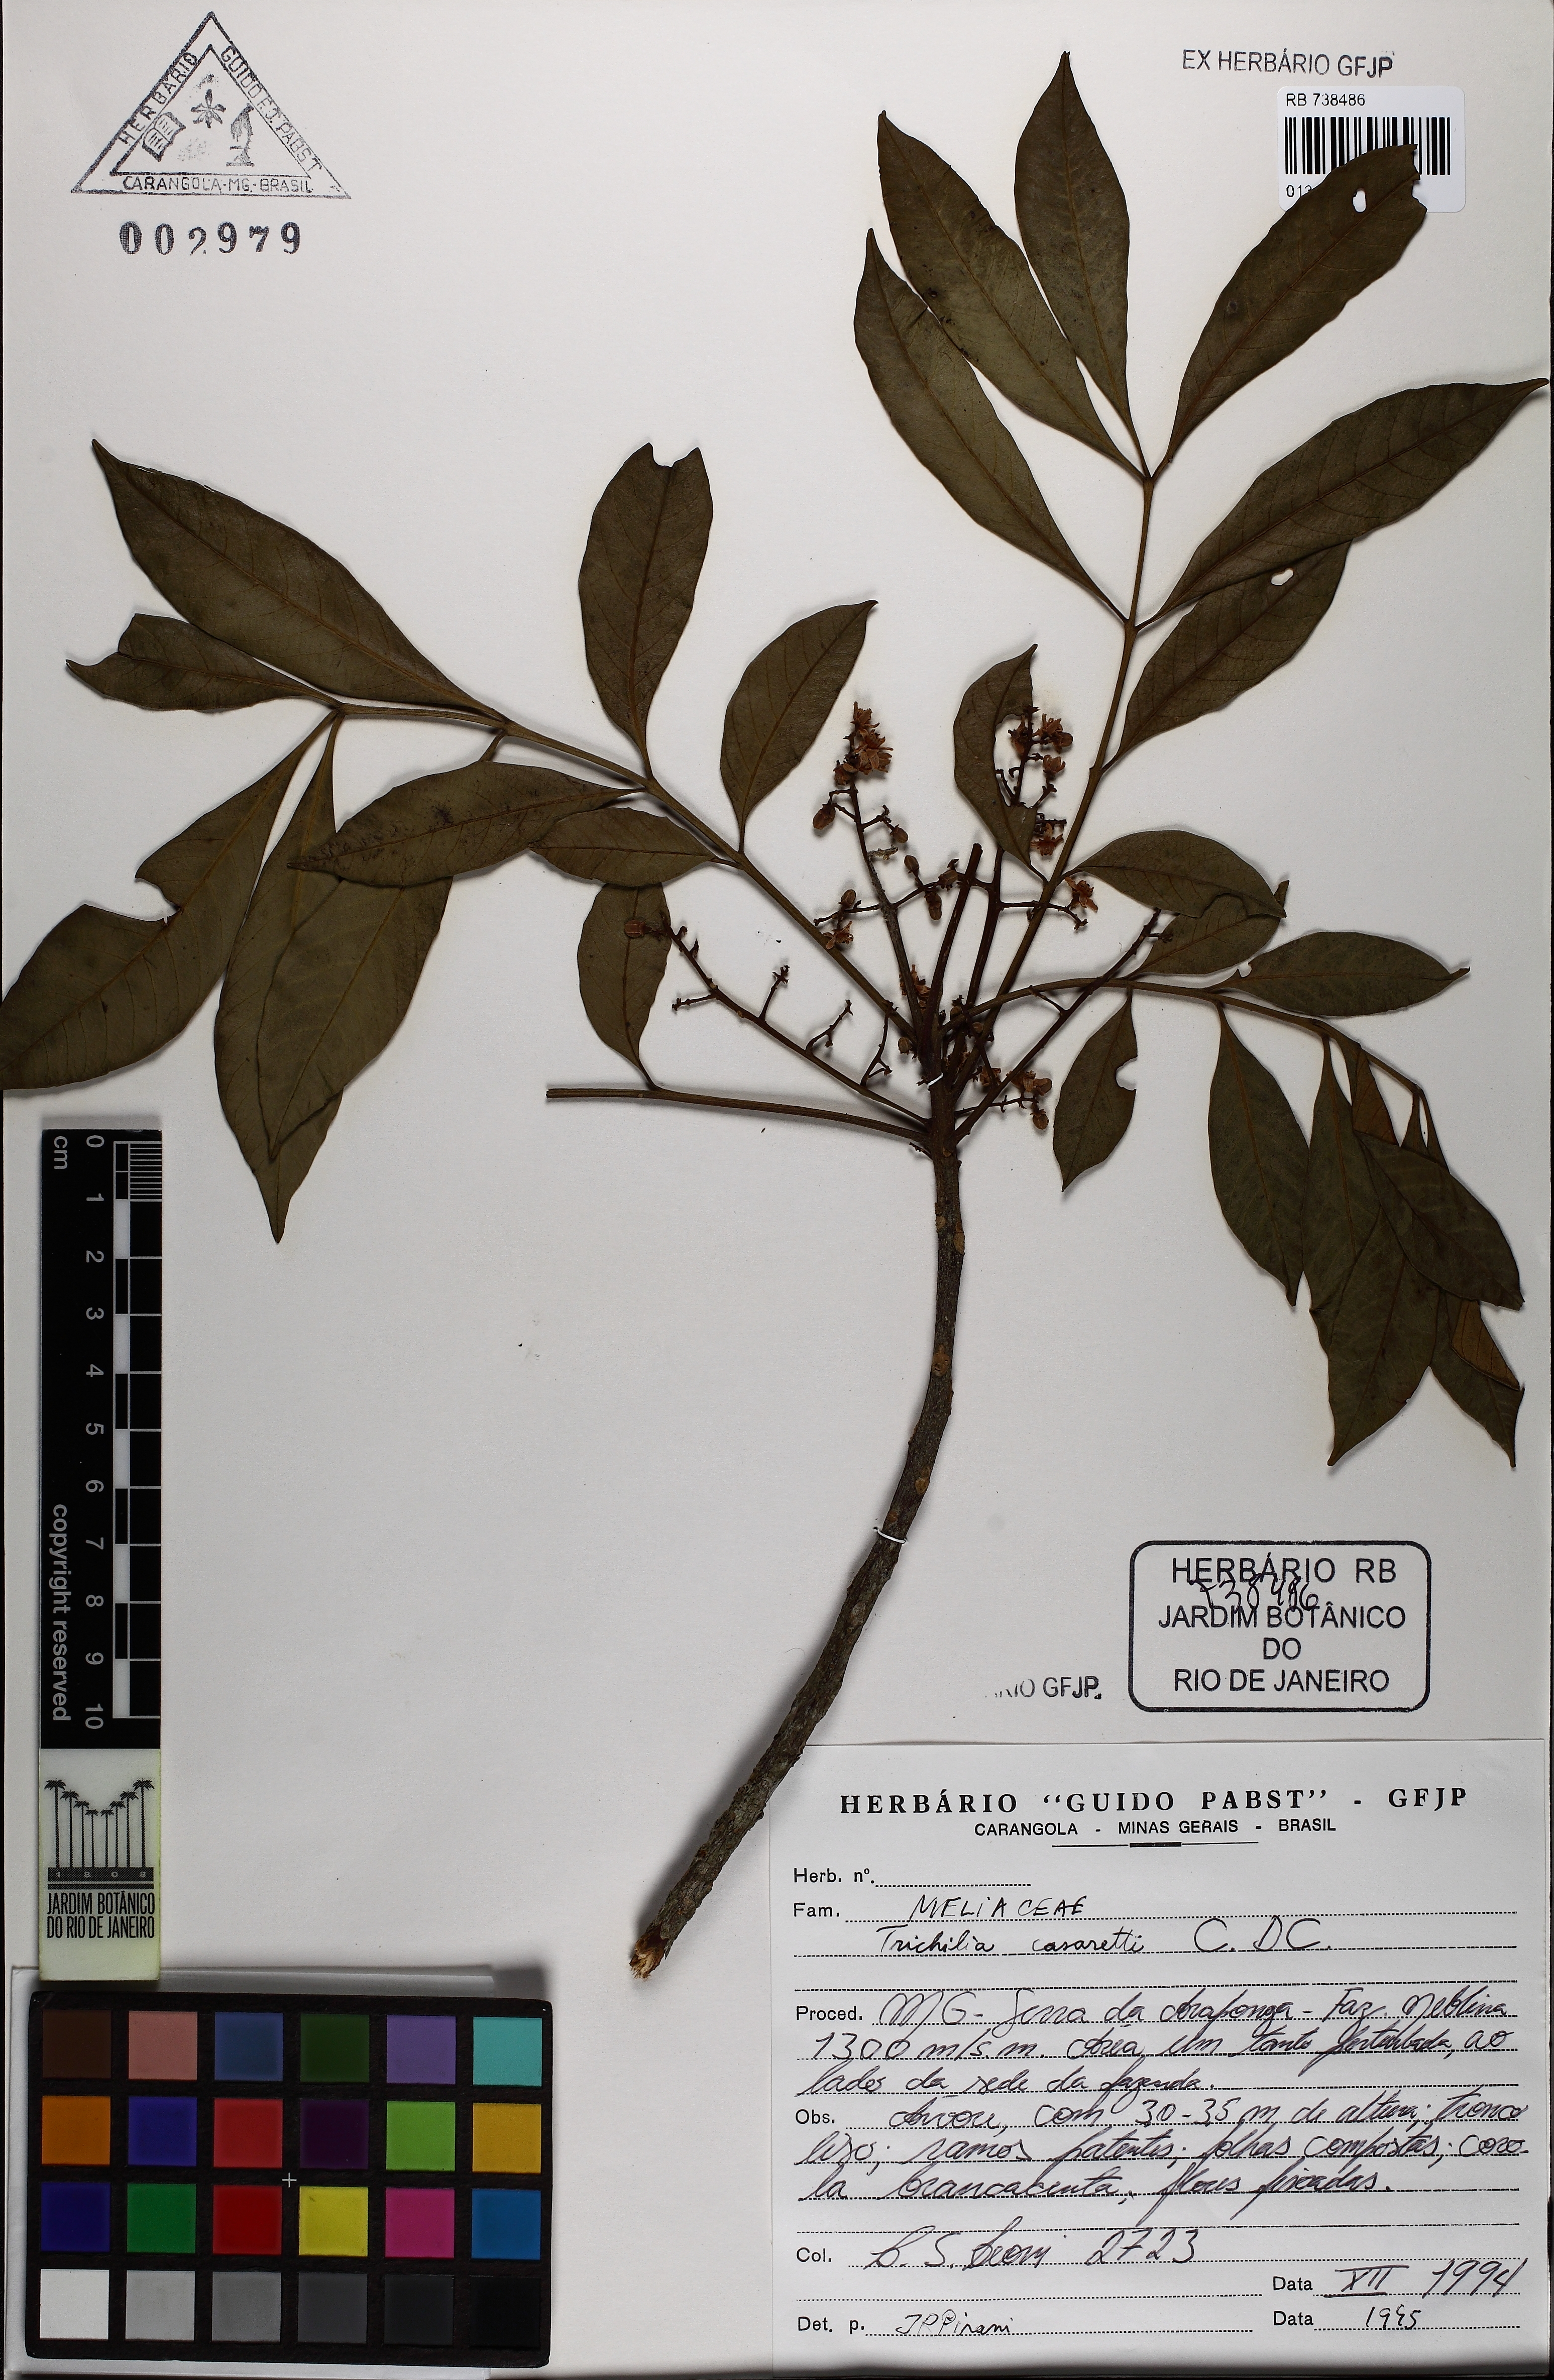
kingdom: Plantae
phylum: Tracheophyta
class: Magnoliopsida
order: Sapindales
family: Meliaceae
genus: Trichilia
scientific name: Trichilia casaretti
